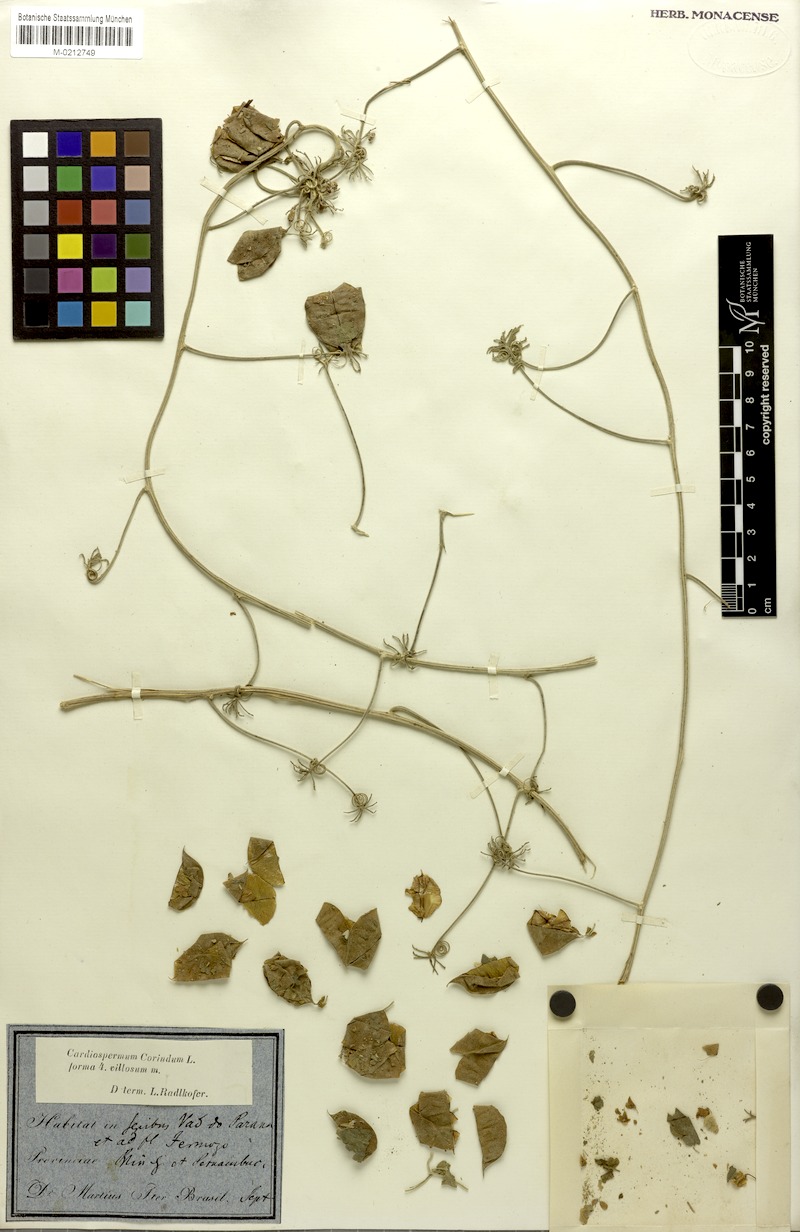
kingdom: Plantae
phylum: Tracheophyta
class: Magnoliopsida
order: Sapindales
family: Sapindaceae
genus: Cardiospermum
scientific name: Cardiospermum corindum
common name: Faux persil
